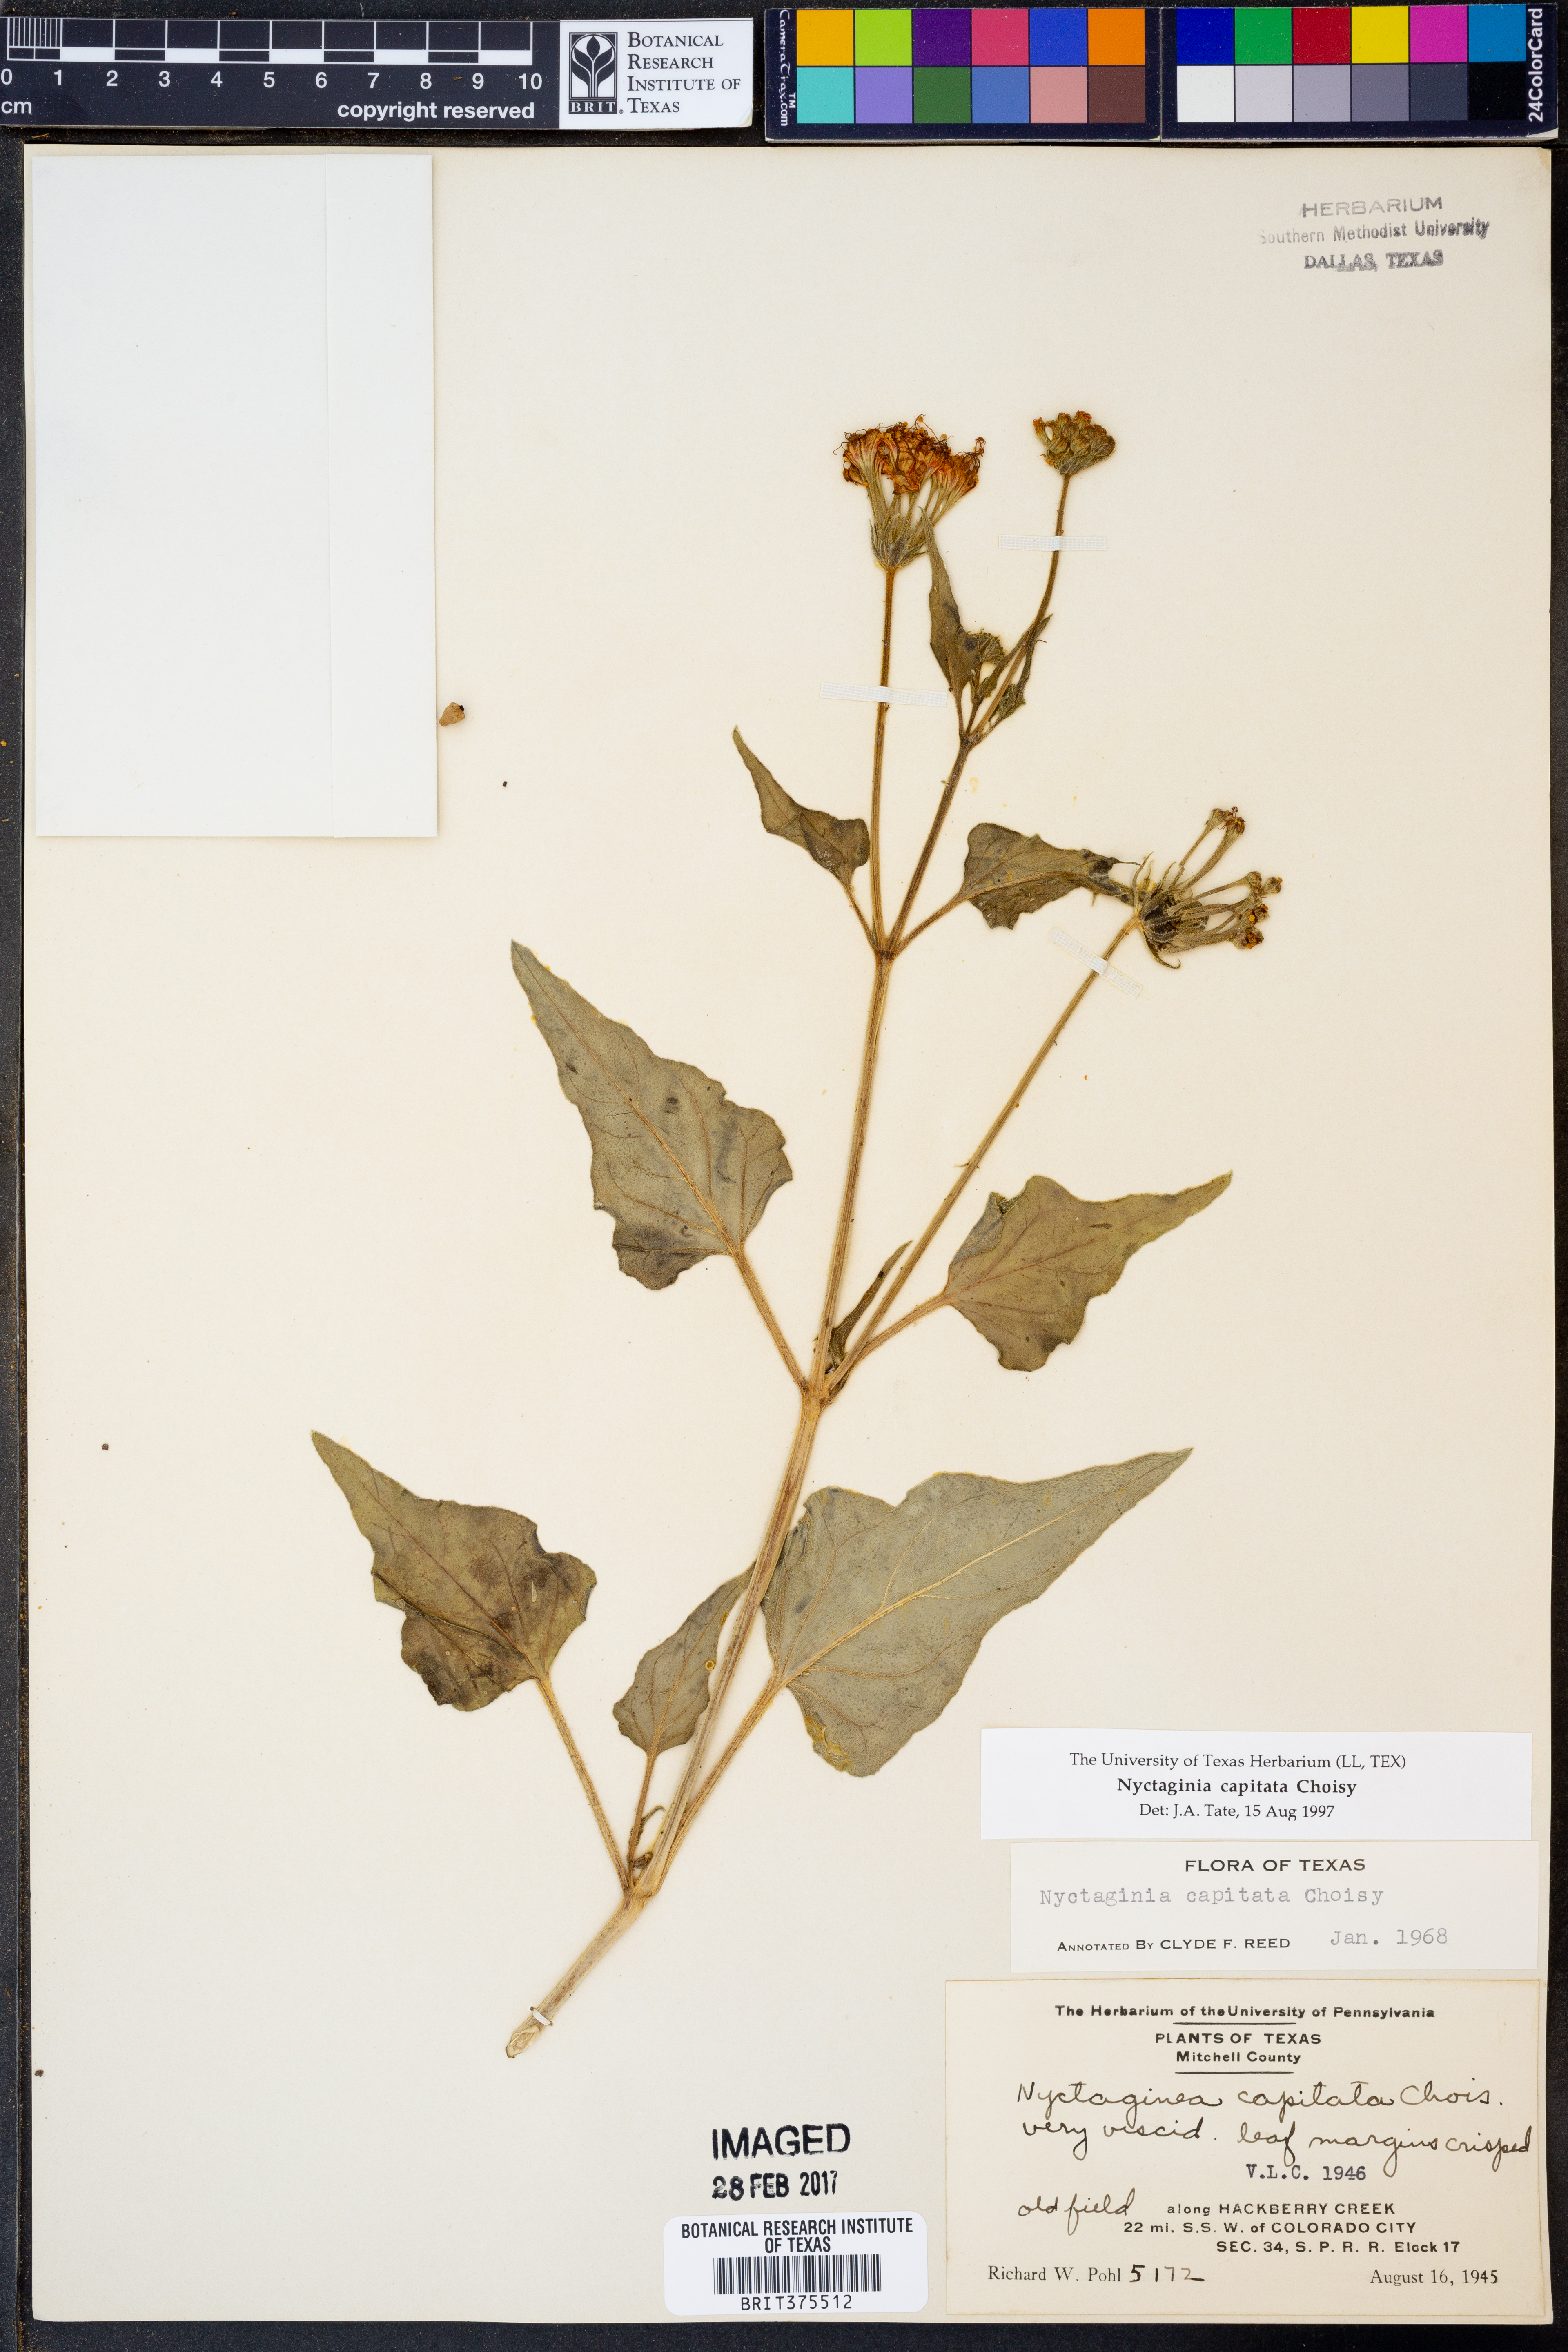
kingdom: Plantae
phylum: Tracheophyta
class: Magnoliopsida
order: Caryophyllales
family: Nyctaginaceae
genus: Nyctaginia
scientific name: Nyctaginia capitata
